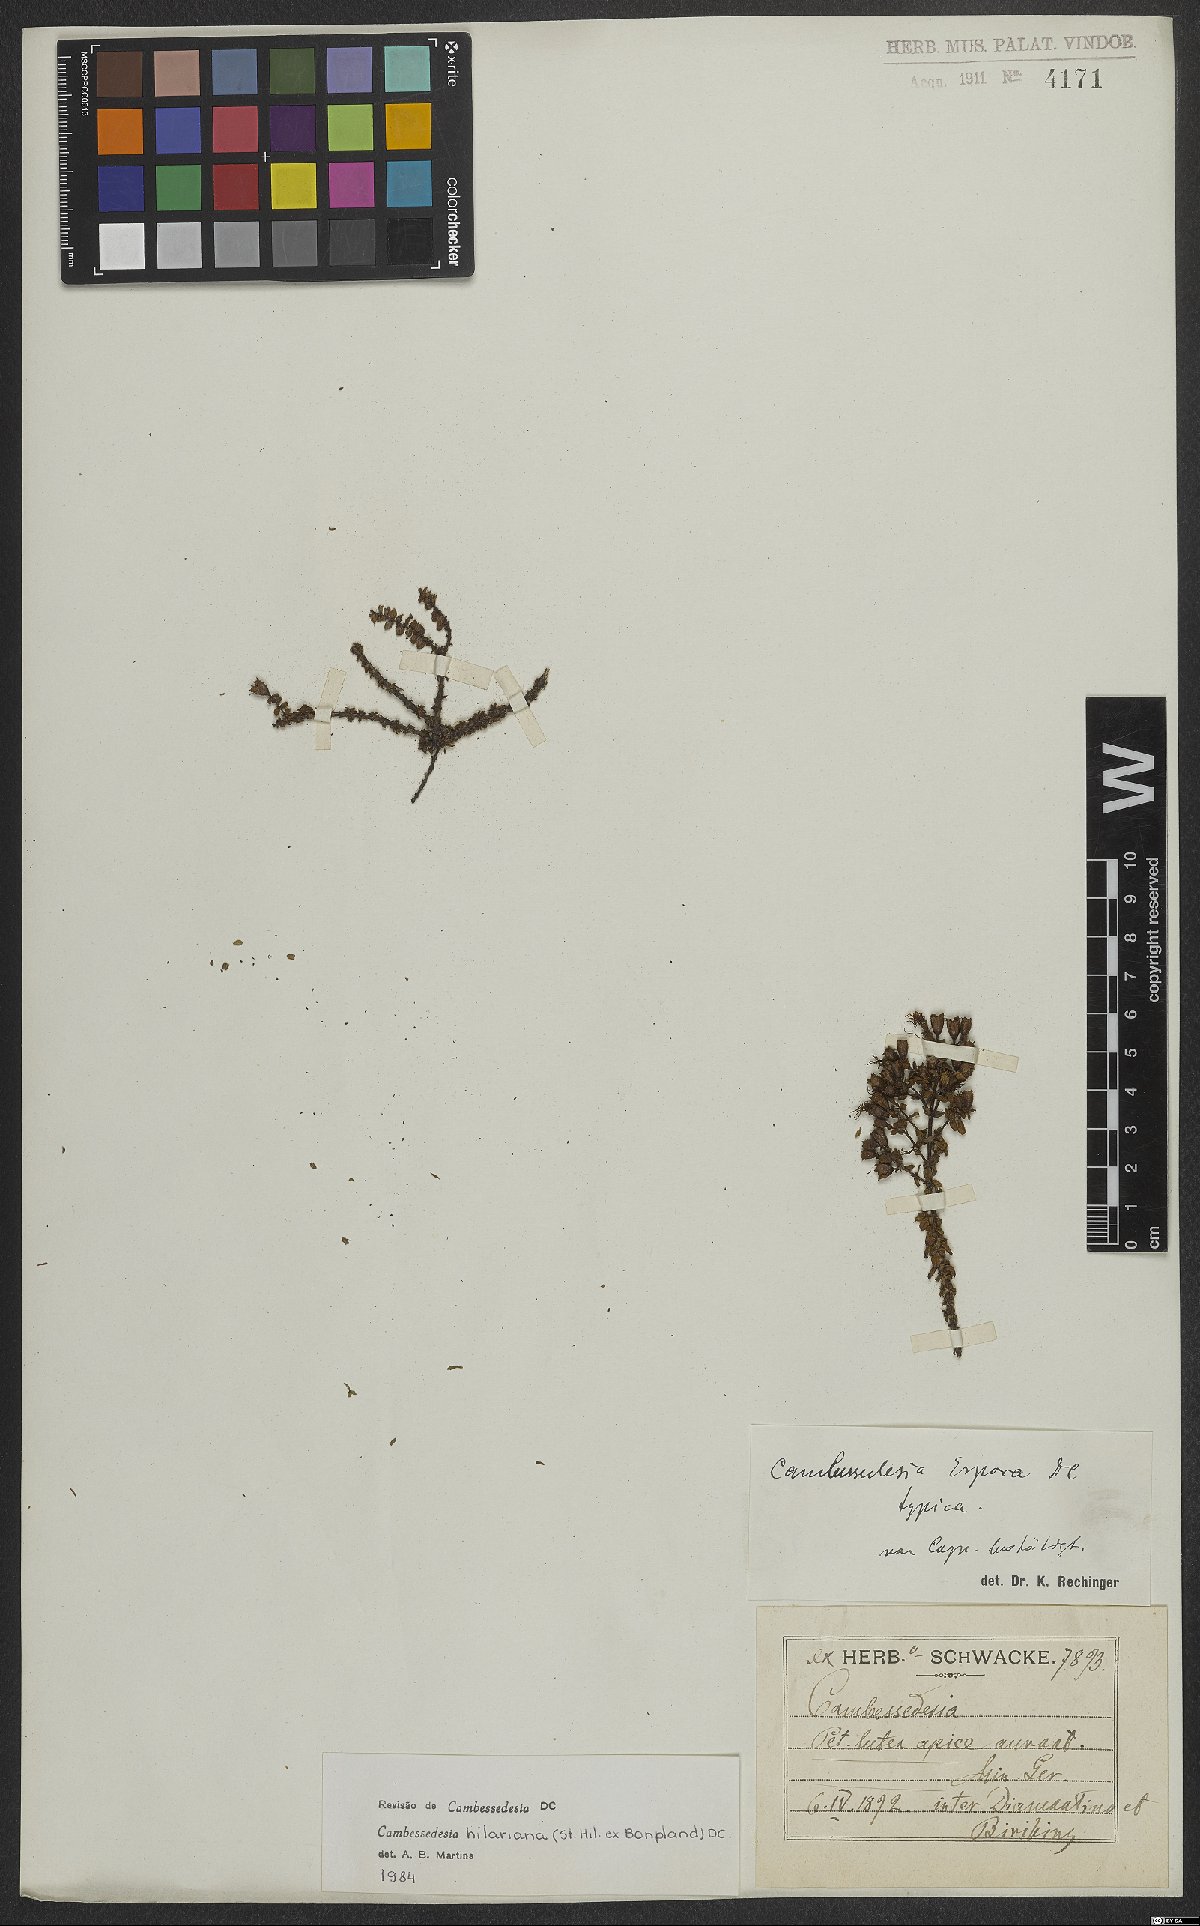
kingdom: Plantae
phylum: Tracheophyta
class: Magnoliopsida
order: Myrtales
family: Melastomataceae
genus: Cambessedesia
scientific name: Cambessedesia hilariana
